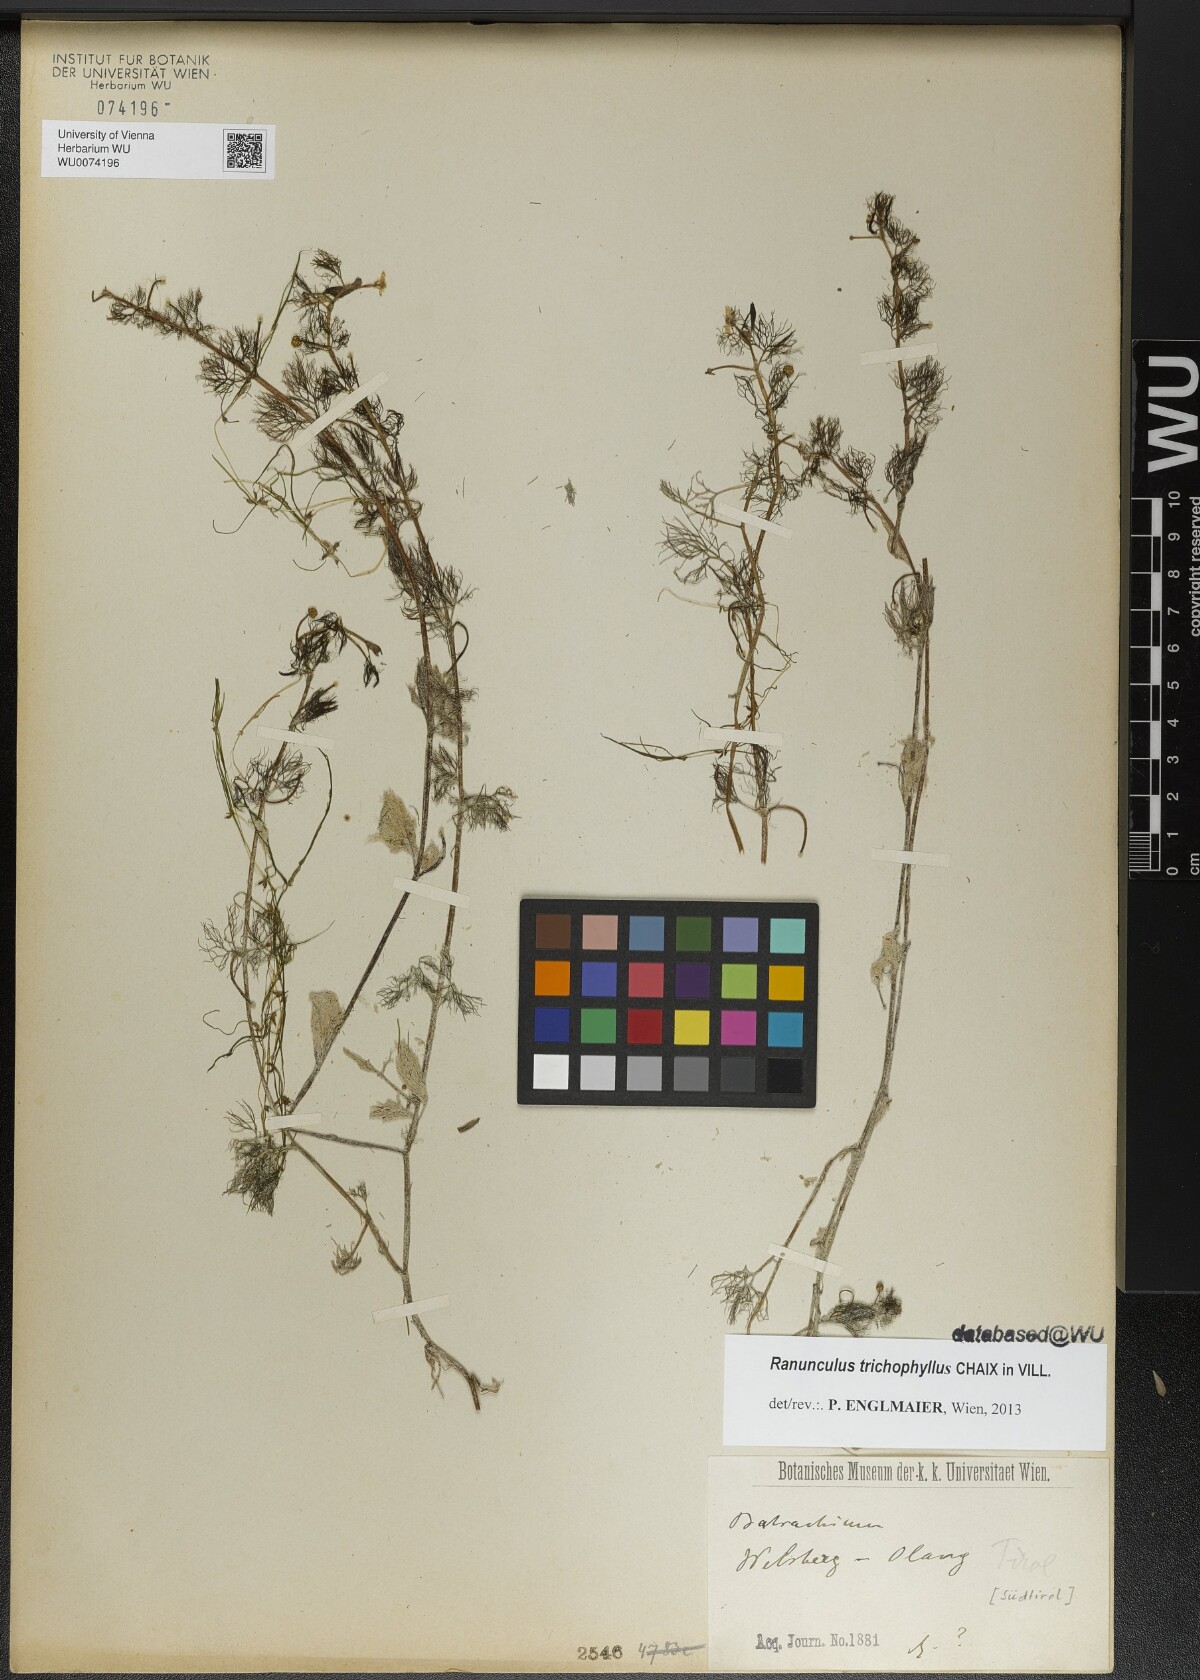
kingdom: Plantae
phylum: Tracheophyta
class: Magnoliopsida
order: Ranunculales
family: Ranunculaceae
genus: Ranunculus
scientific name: Ranunculus trichophyllus
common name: Thread-leaved water-crowfoot
